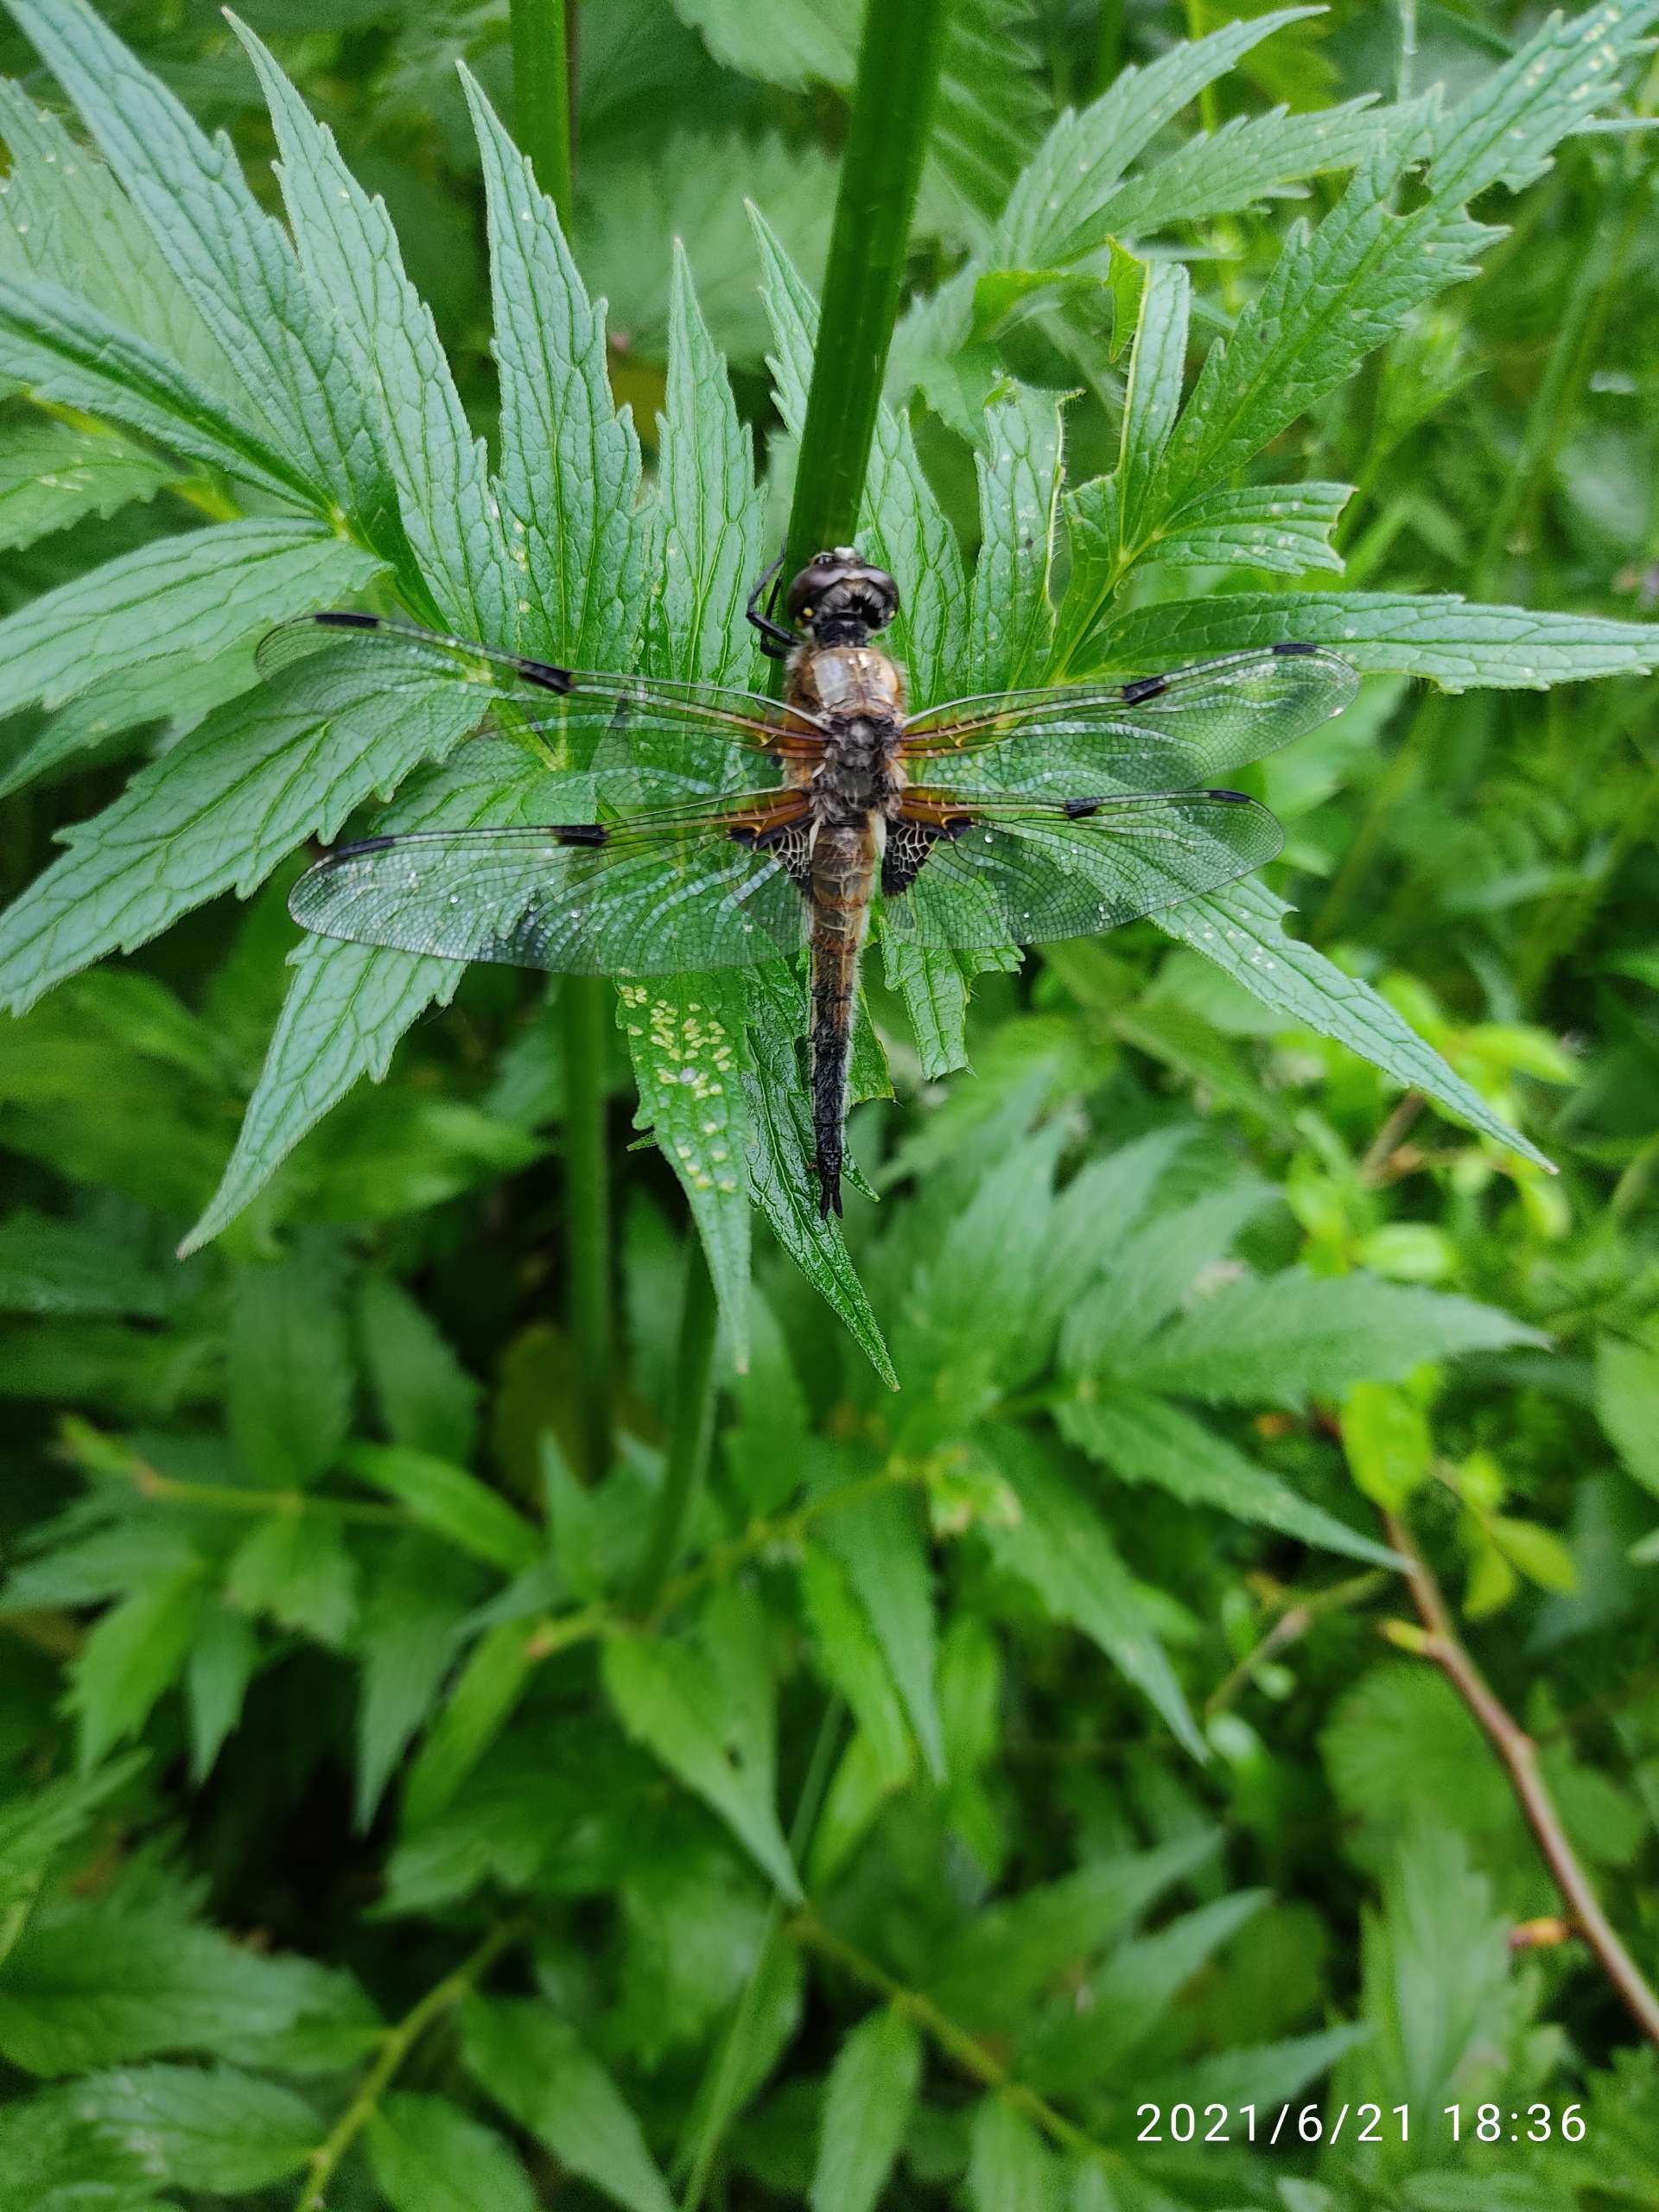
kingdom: Animalia
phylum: Arthropoda
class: Insecta
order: Odonata
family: Libellulidae
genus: Libellula
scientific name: Libellula quadrimaculata
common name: Fireplettet libel
